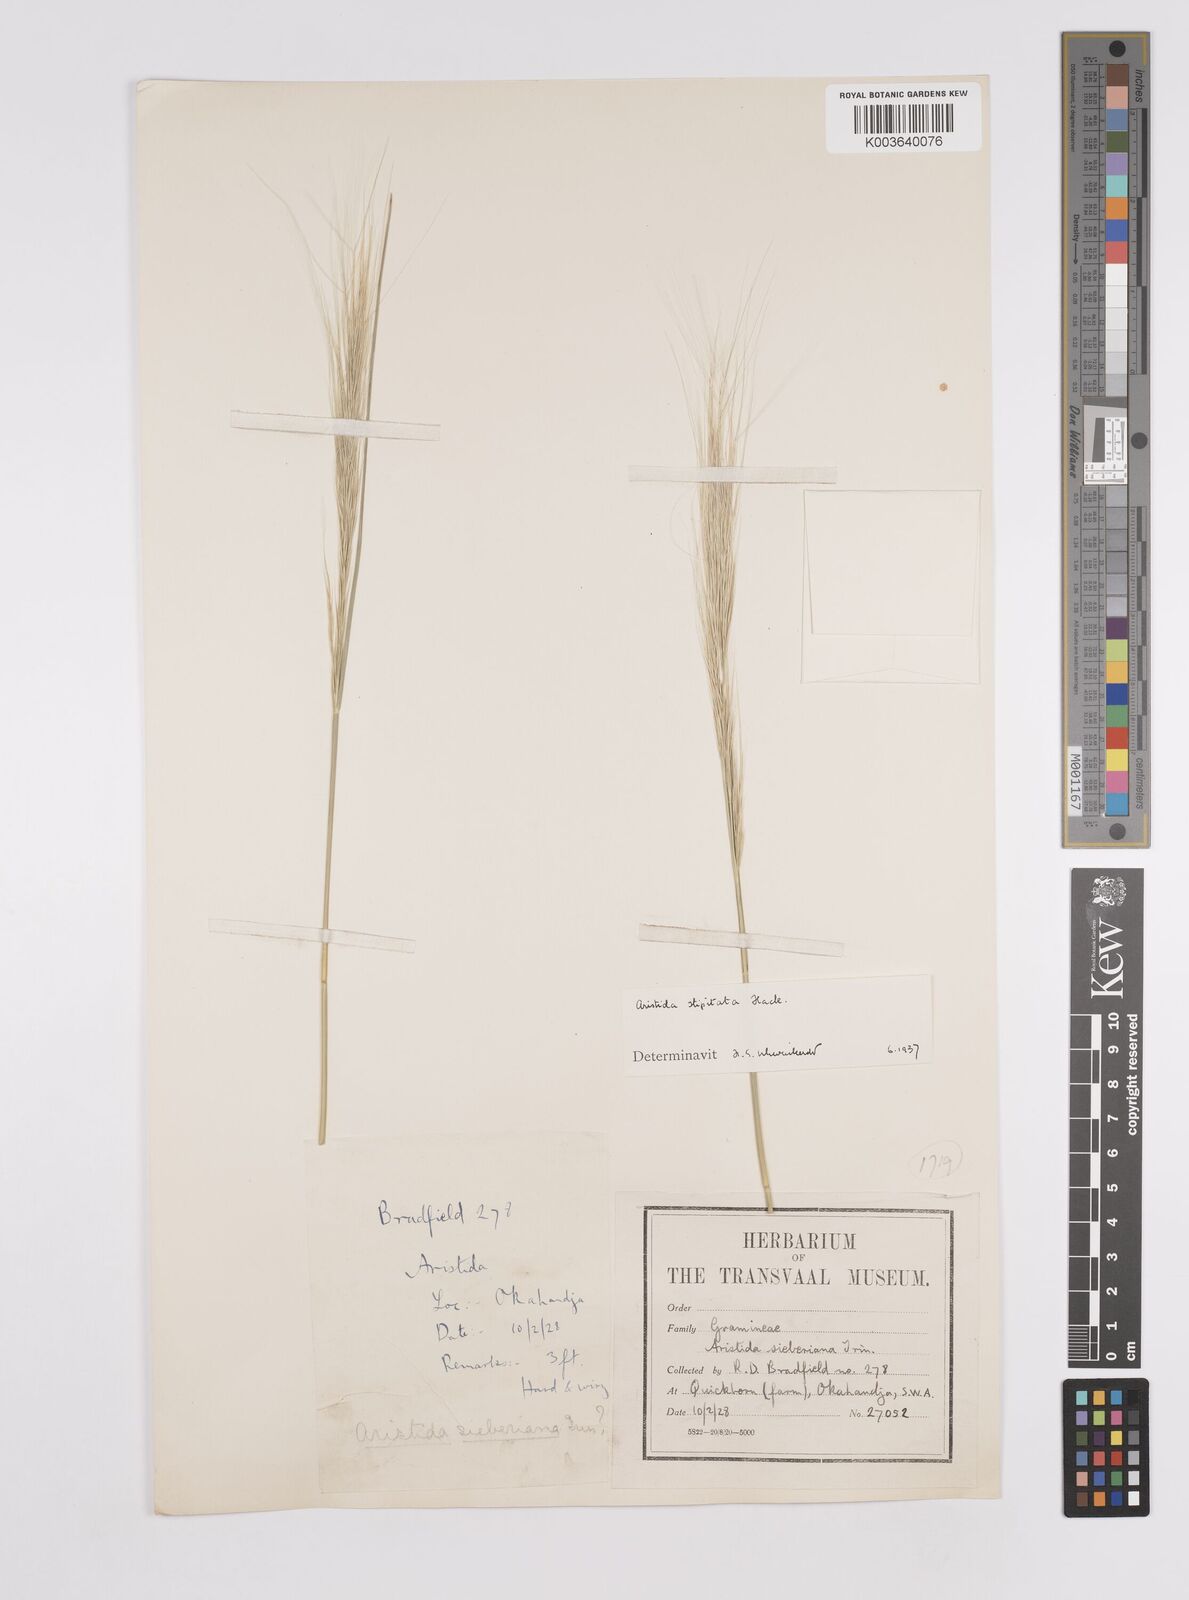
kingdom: Plantae
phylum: Tracheophyta
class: Liliopsida
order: Poales
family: Poaceae
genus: Aristida
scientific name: Aristida stipitata
